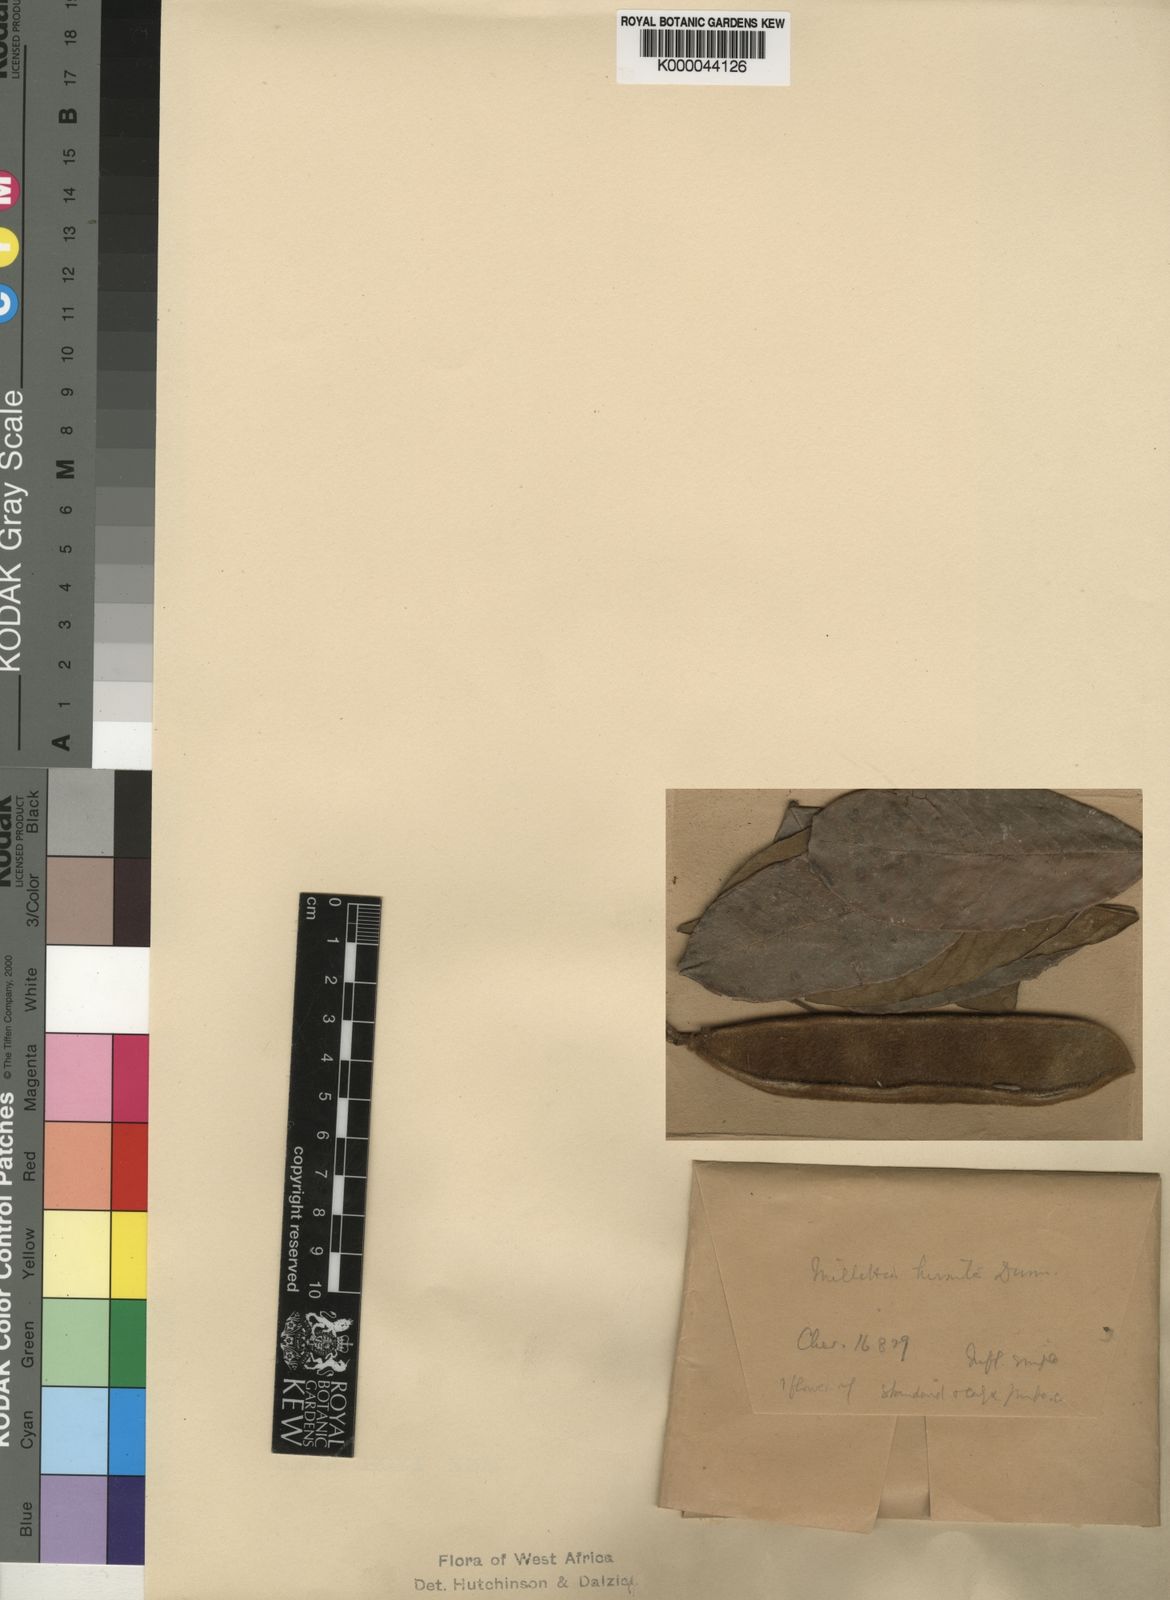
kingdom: Plantae
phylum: Tracheophyta
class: Magnoliopsida
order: Fabales
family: Fabaceae
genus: Platysepalum
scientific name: Platysepalum hirsutum
